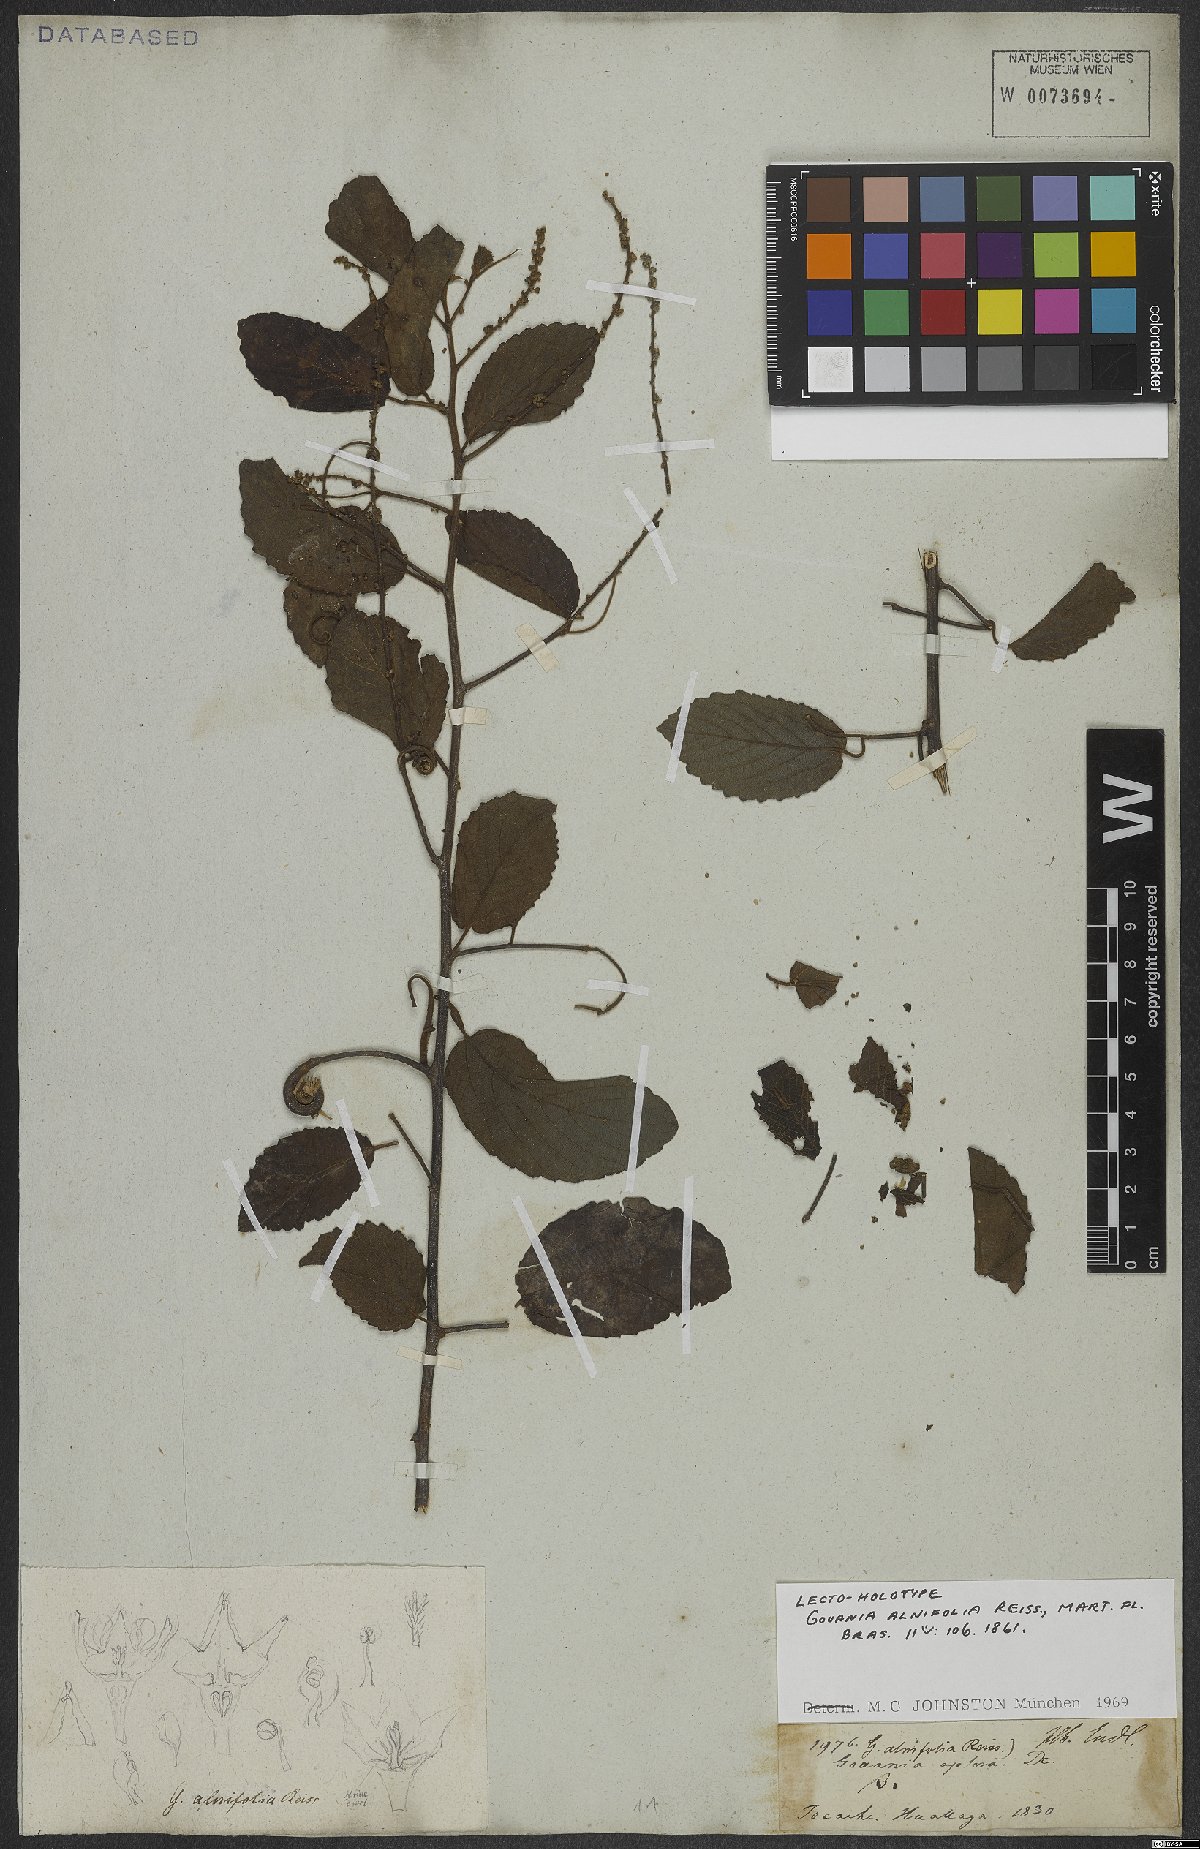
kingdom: Plantae
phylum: Tracheophyta
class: Magnoliopsida
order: Rosales
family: Rhamnaceae
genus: Gouania
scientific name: Gouania alnifolia
